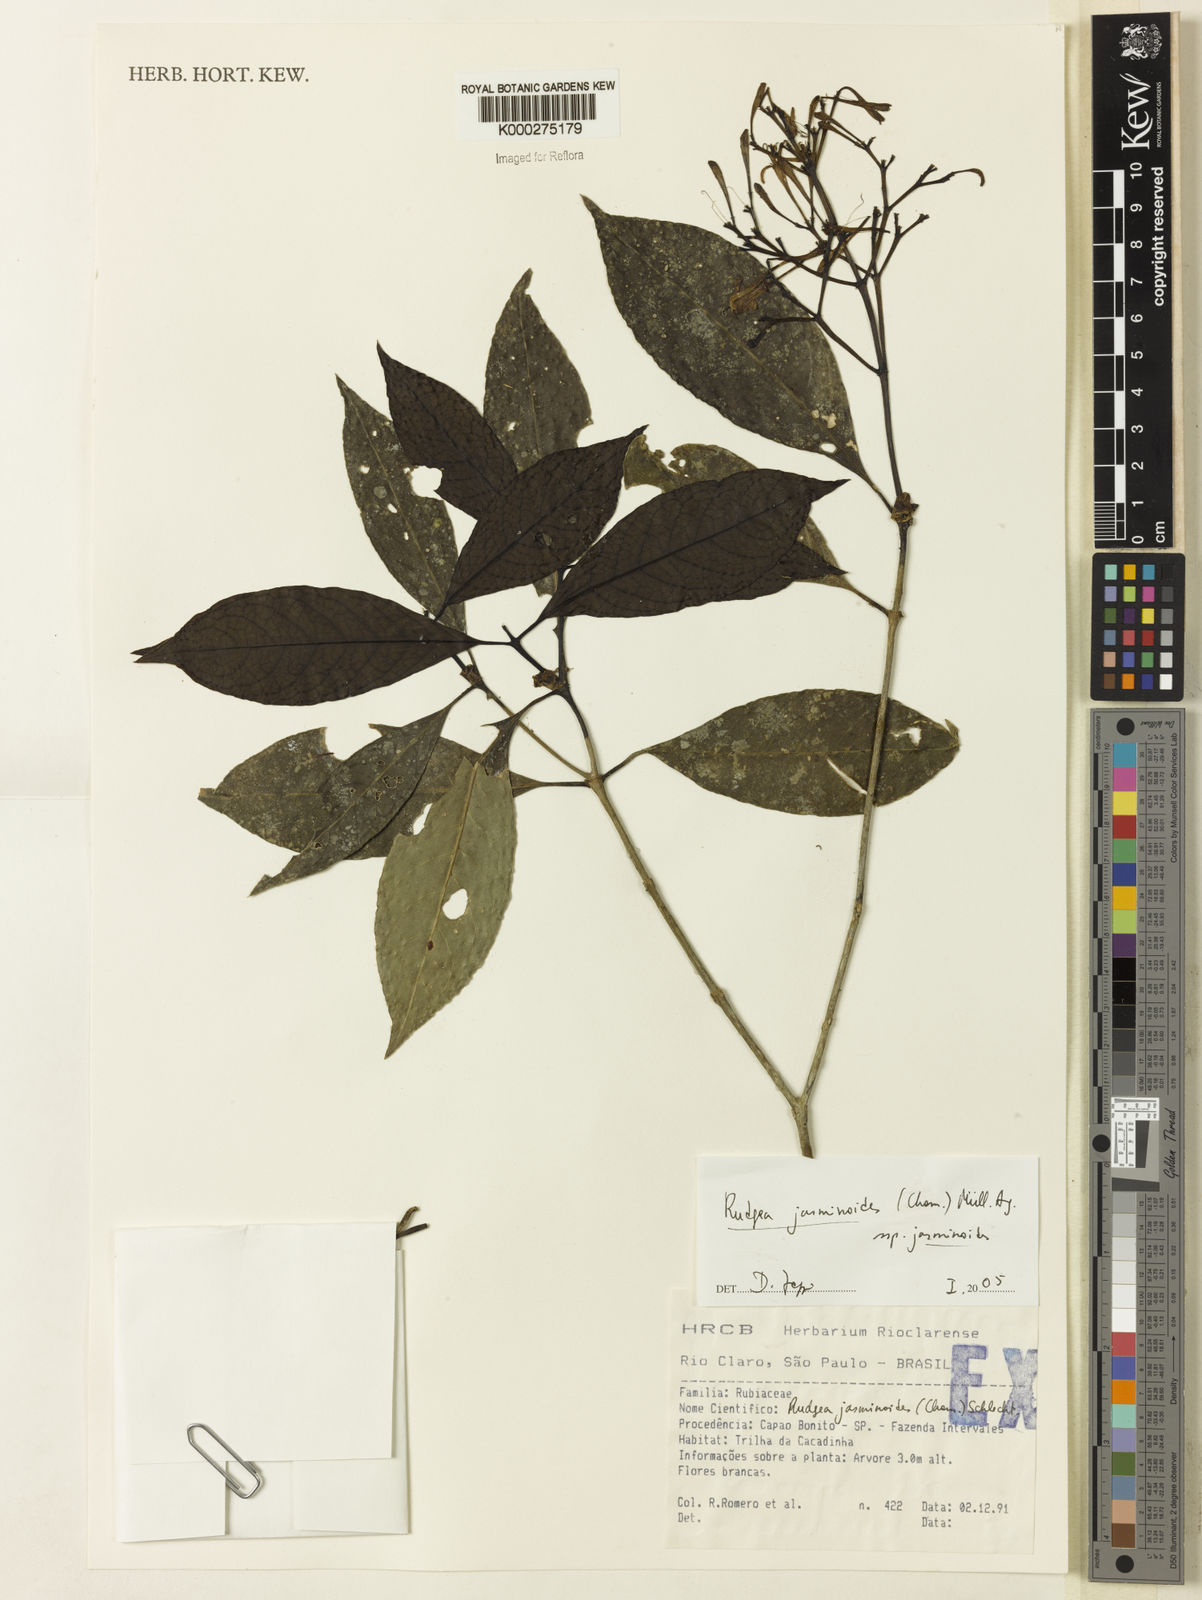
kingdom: Plantae
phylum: Tracheophyta
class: Magnoliopsida
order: Gentianales
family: Rubiaceae
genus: Rudgea
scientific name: Rudgea jasminoides
